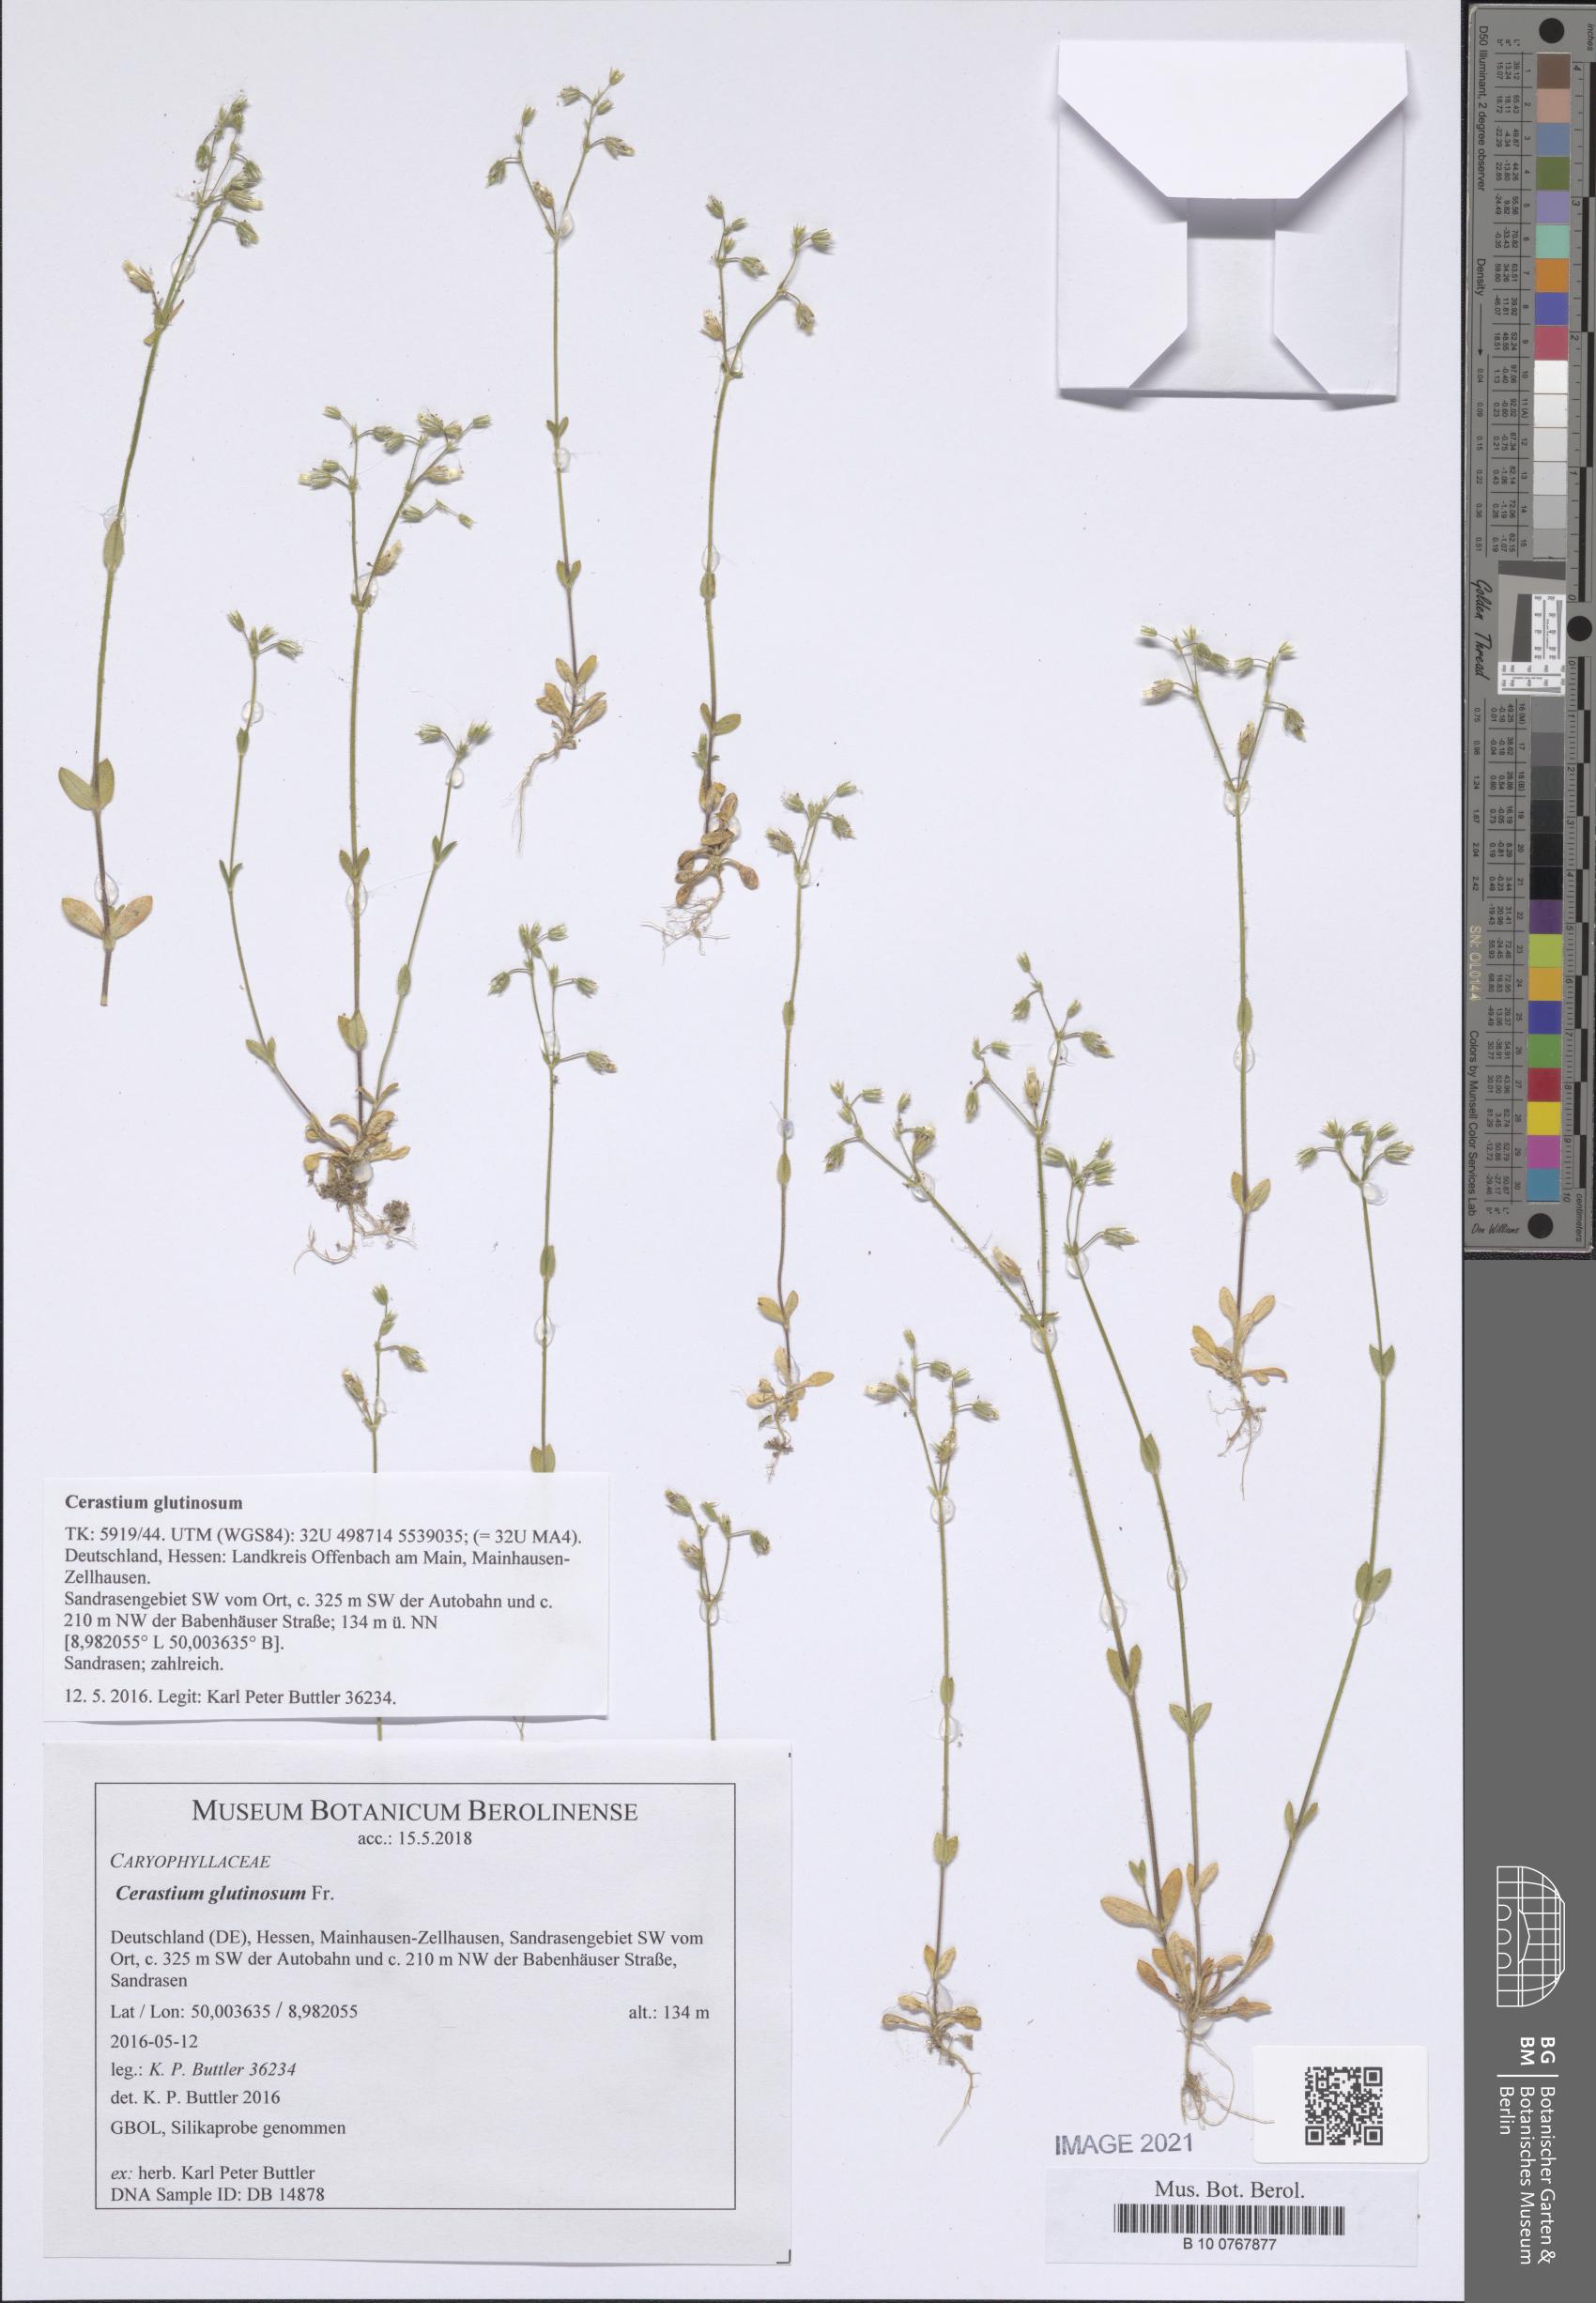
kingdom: Plantae
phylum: Tracheophyta
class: Magnoliopsida
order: Caryophyllales
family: Caryophyllaceae
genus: Cerastium
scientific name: Cerastium glutinosum
